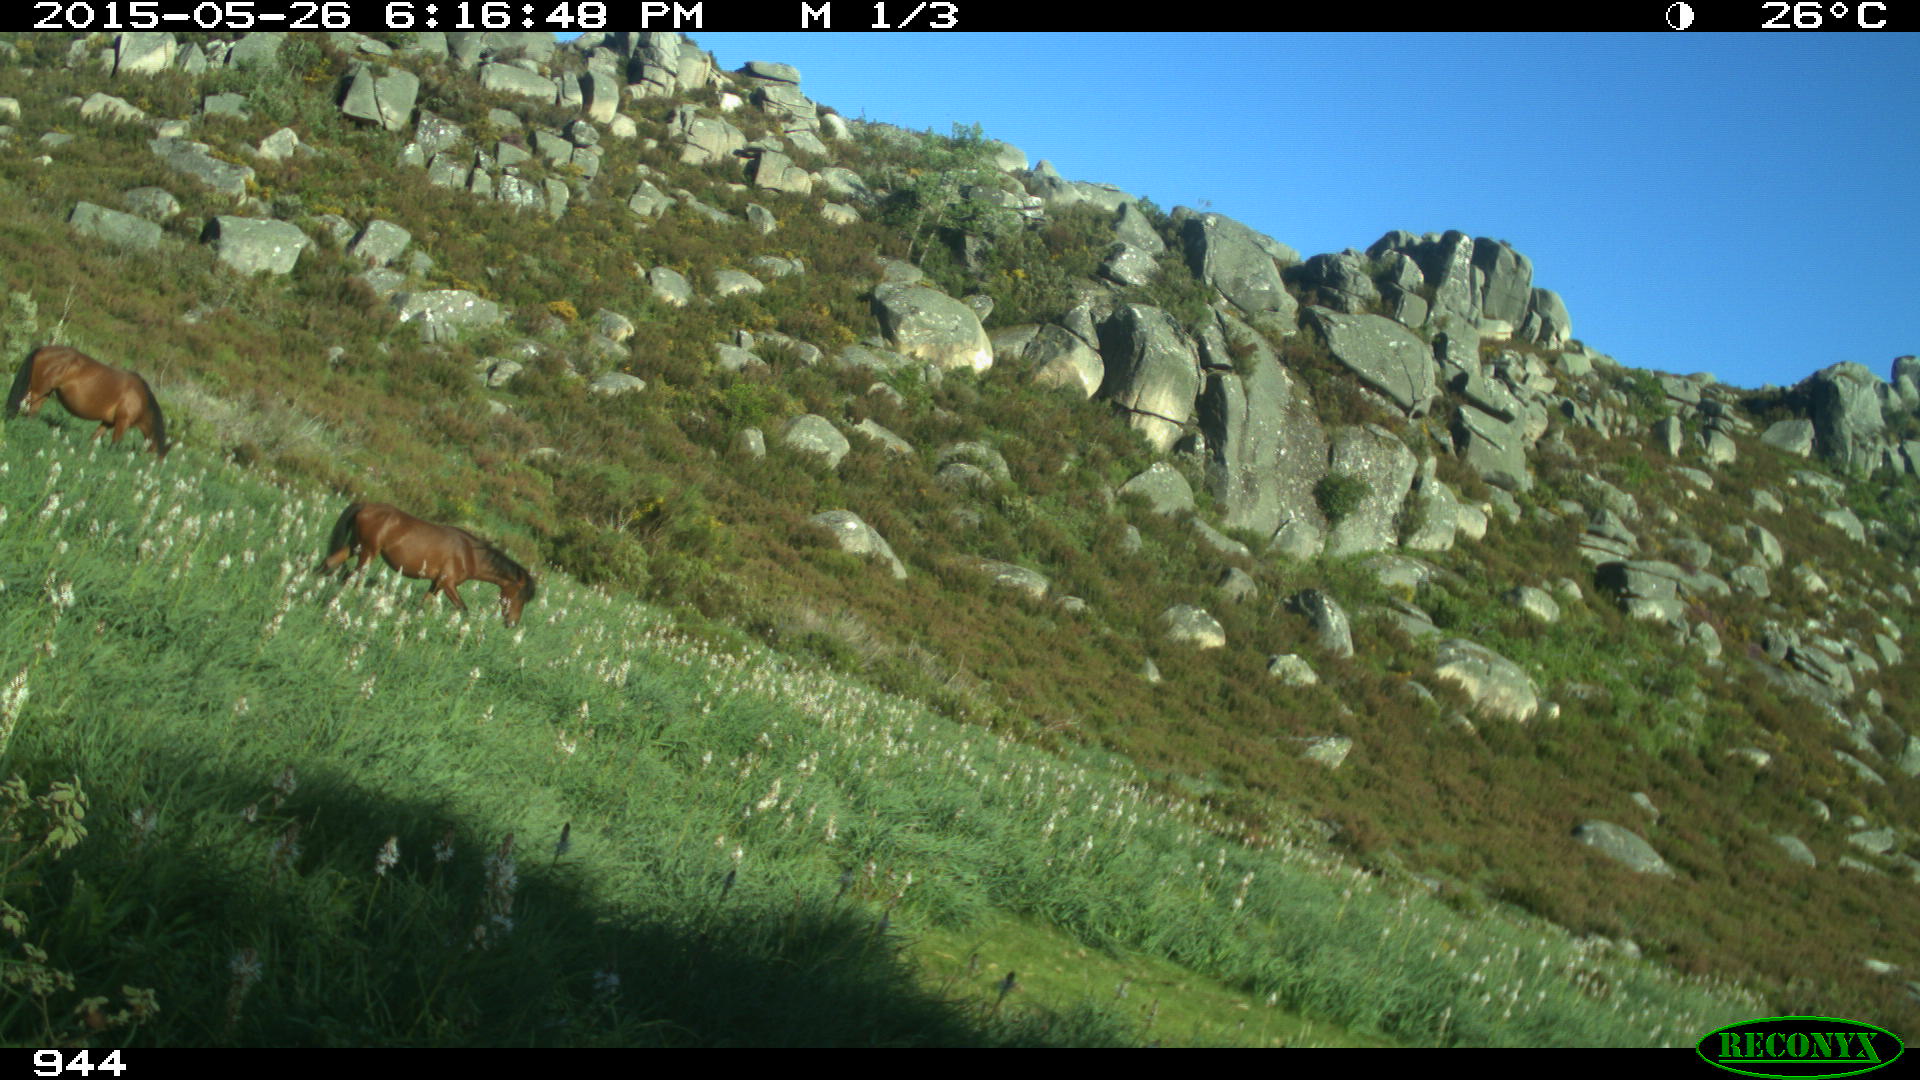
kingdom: Animalia
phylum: Chordata
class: Mammalia
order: Perissodactyla
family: Equidae
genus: Equus
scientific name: Equus caballus
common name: Horse
